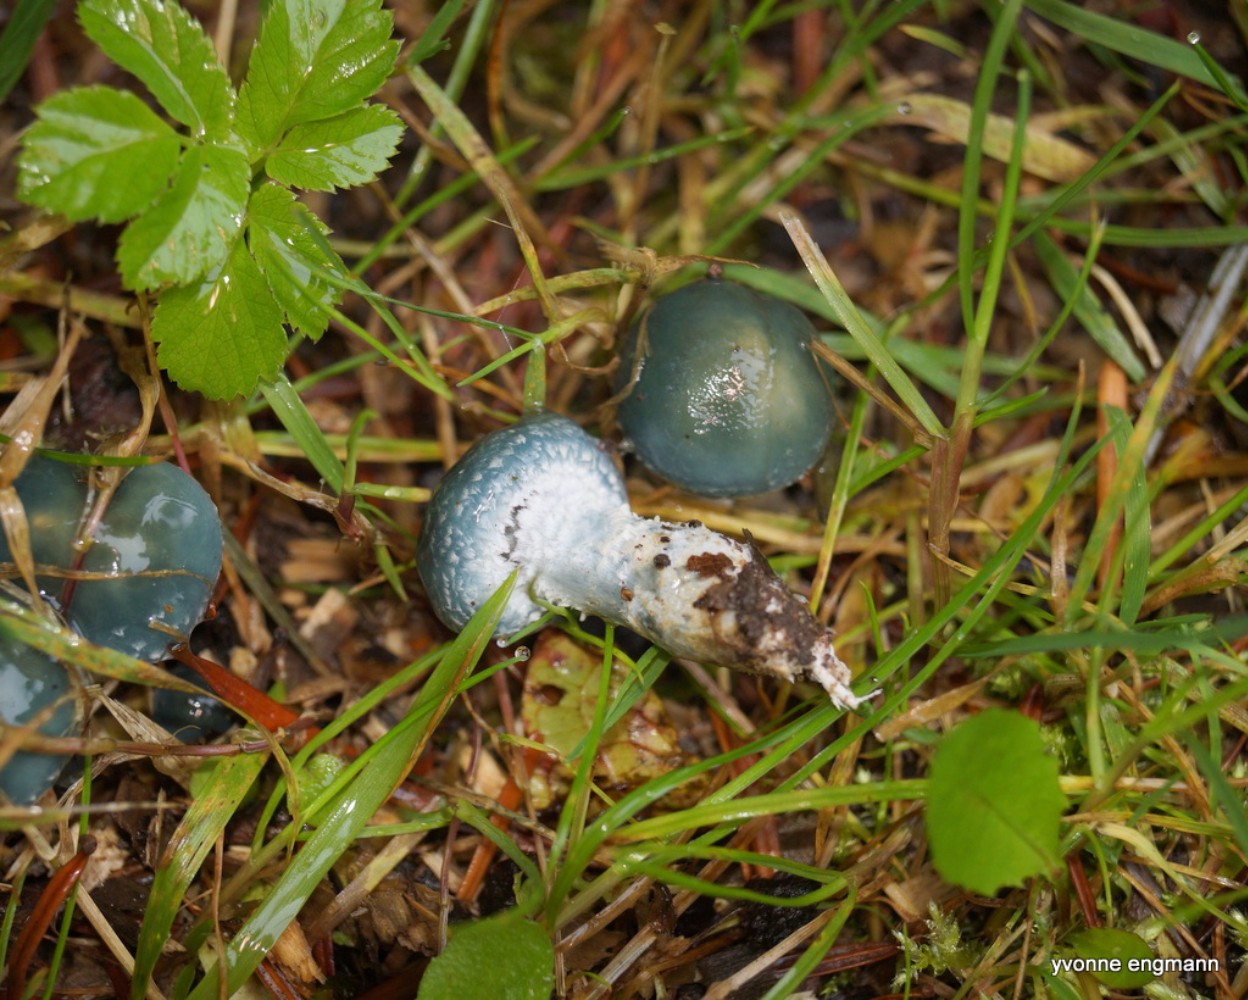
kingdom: Fungi
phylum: Basidiomycota
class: Agaricomycetes
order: Agaricales
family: Strophariaceae
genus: Stropharia
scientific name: Stropharia aeruginosa
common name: spanskgrøn bredblad
